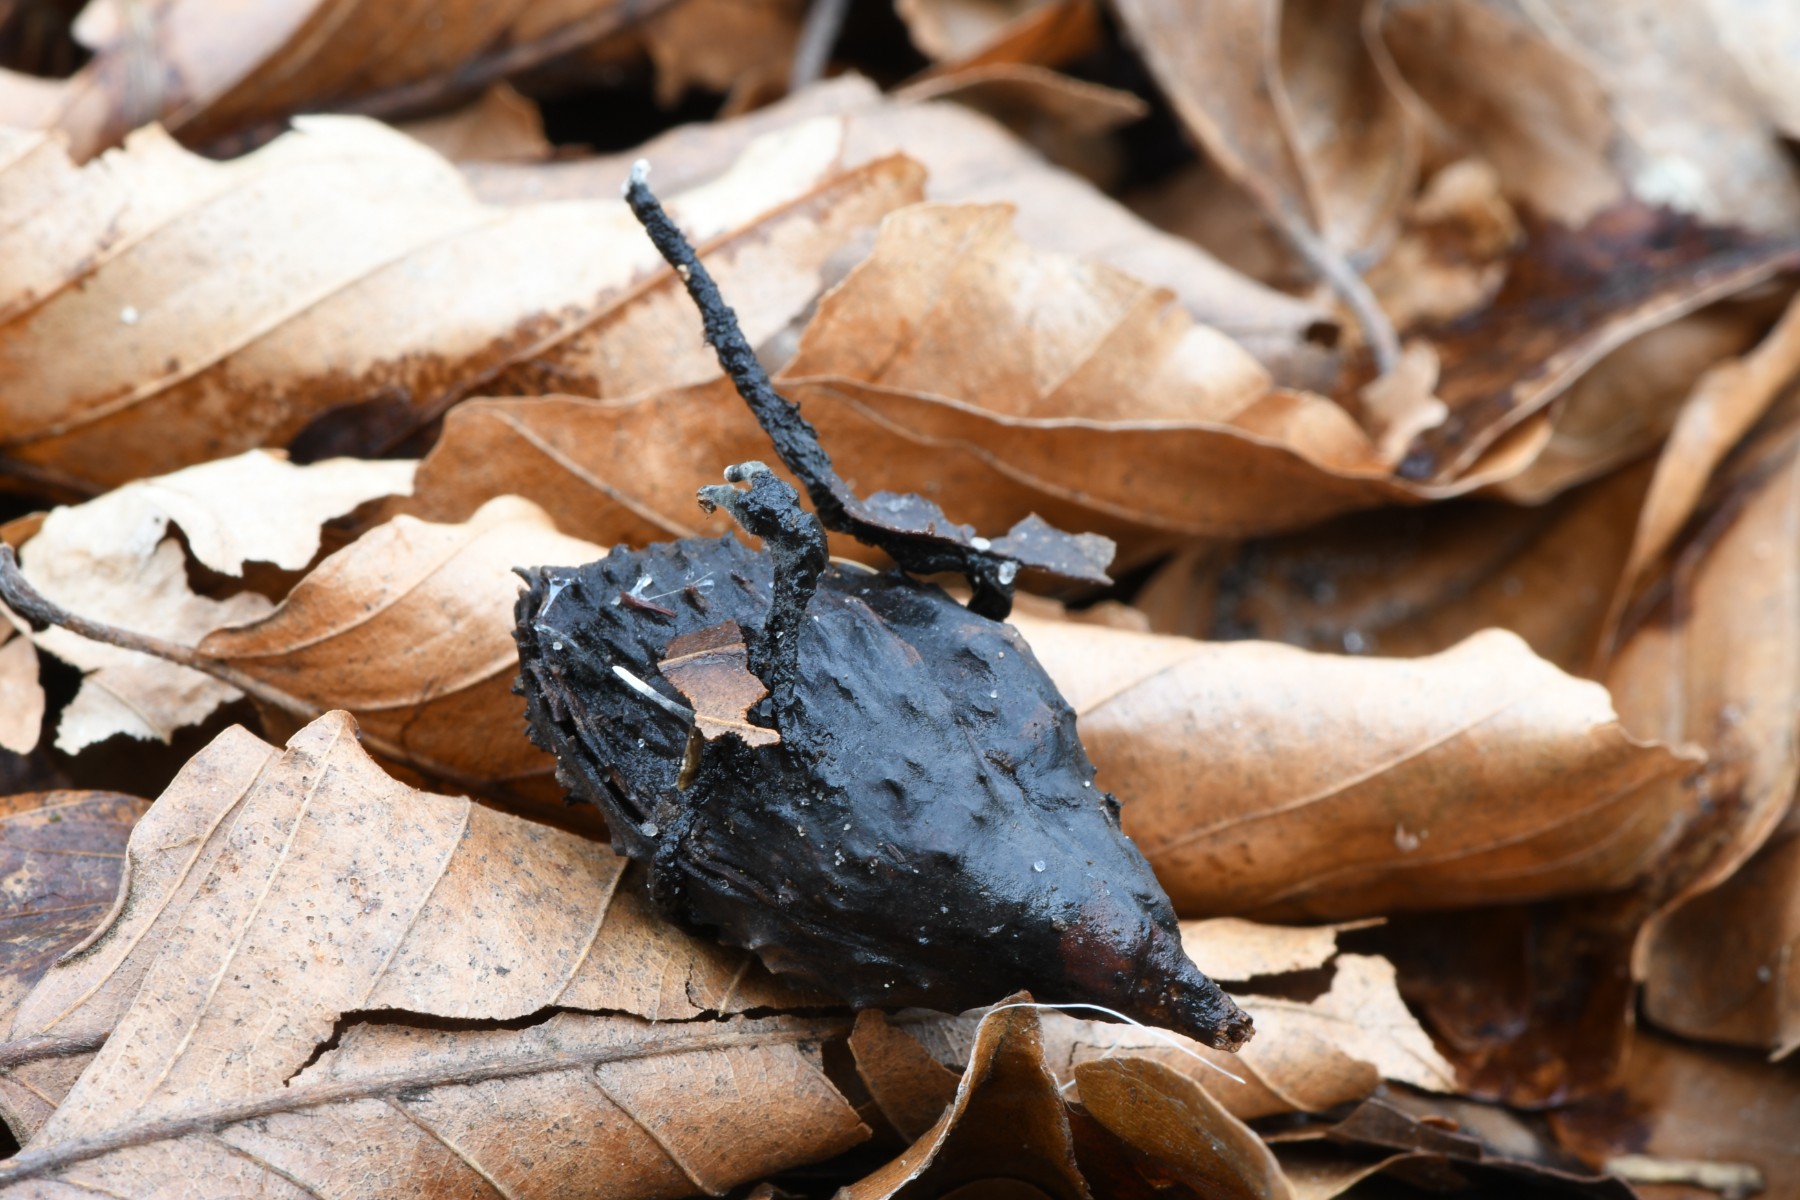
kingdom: Fungi
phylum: Ascomycota
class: Sordariomycetes
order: Xylariales
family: Xylariaceae
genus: Xylaria
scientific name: Xylaria carpophila
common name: bogskål-stødsvamp
